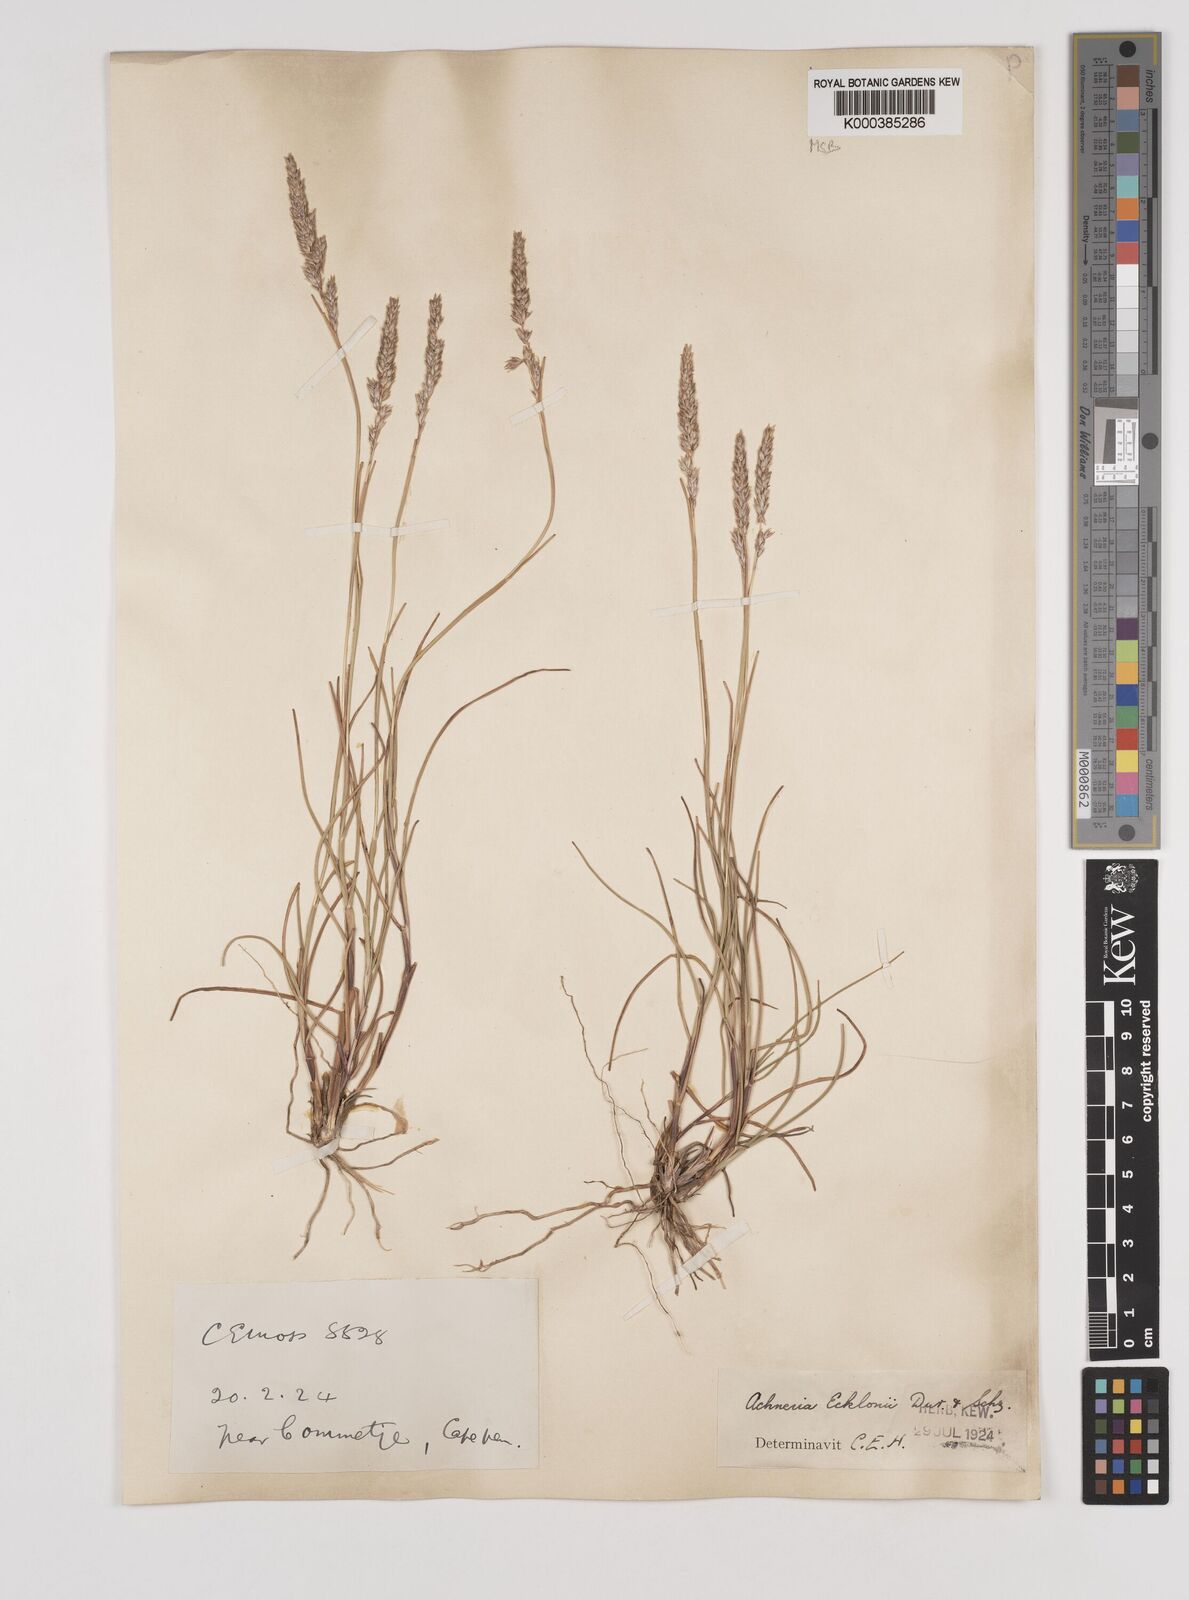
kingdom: Plantae
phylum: Tracheophyta
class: Liliopsida
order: Poales
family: Poaceae
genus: Pentameris
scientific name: Pentameris ecklonii
